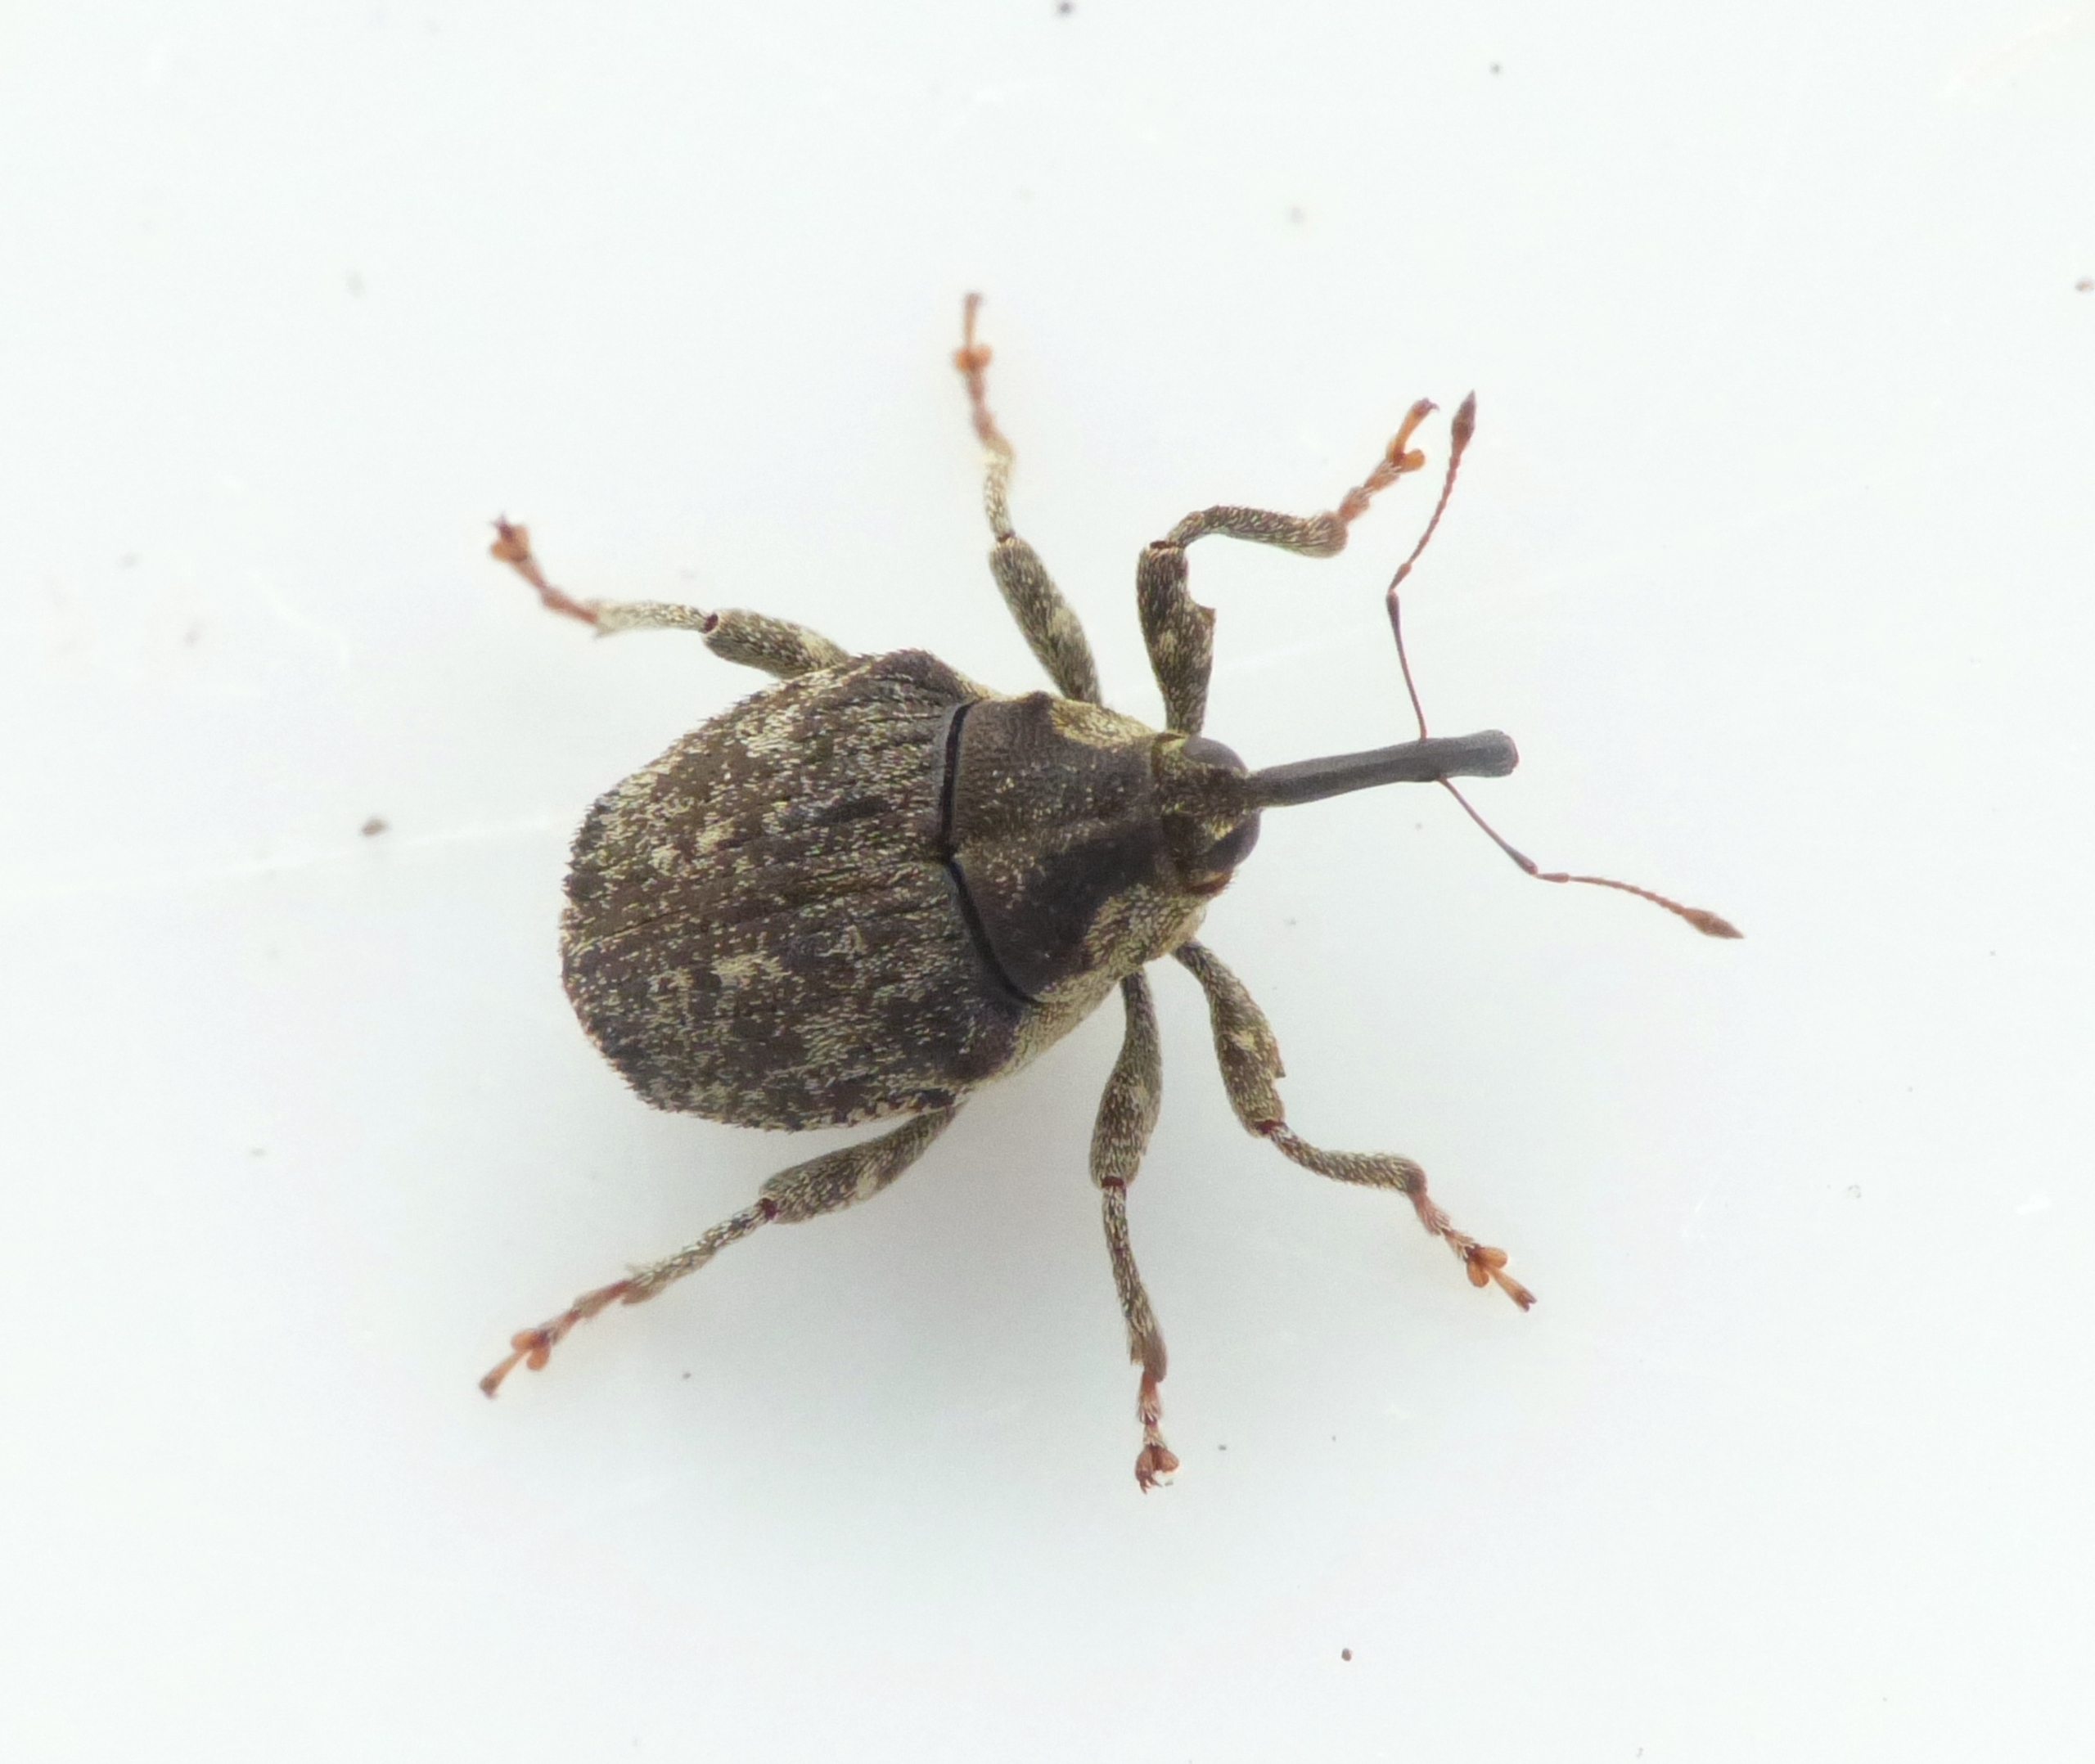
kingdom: Animalia
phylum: Arthropoda
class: Insecta
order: Coleoptera
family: Curculionidae
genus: Parethelcus
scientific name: Parethelcus pollinarius
